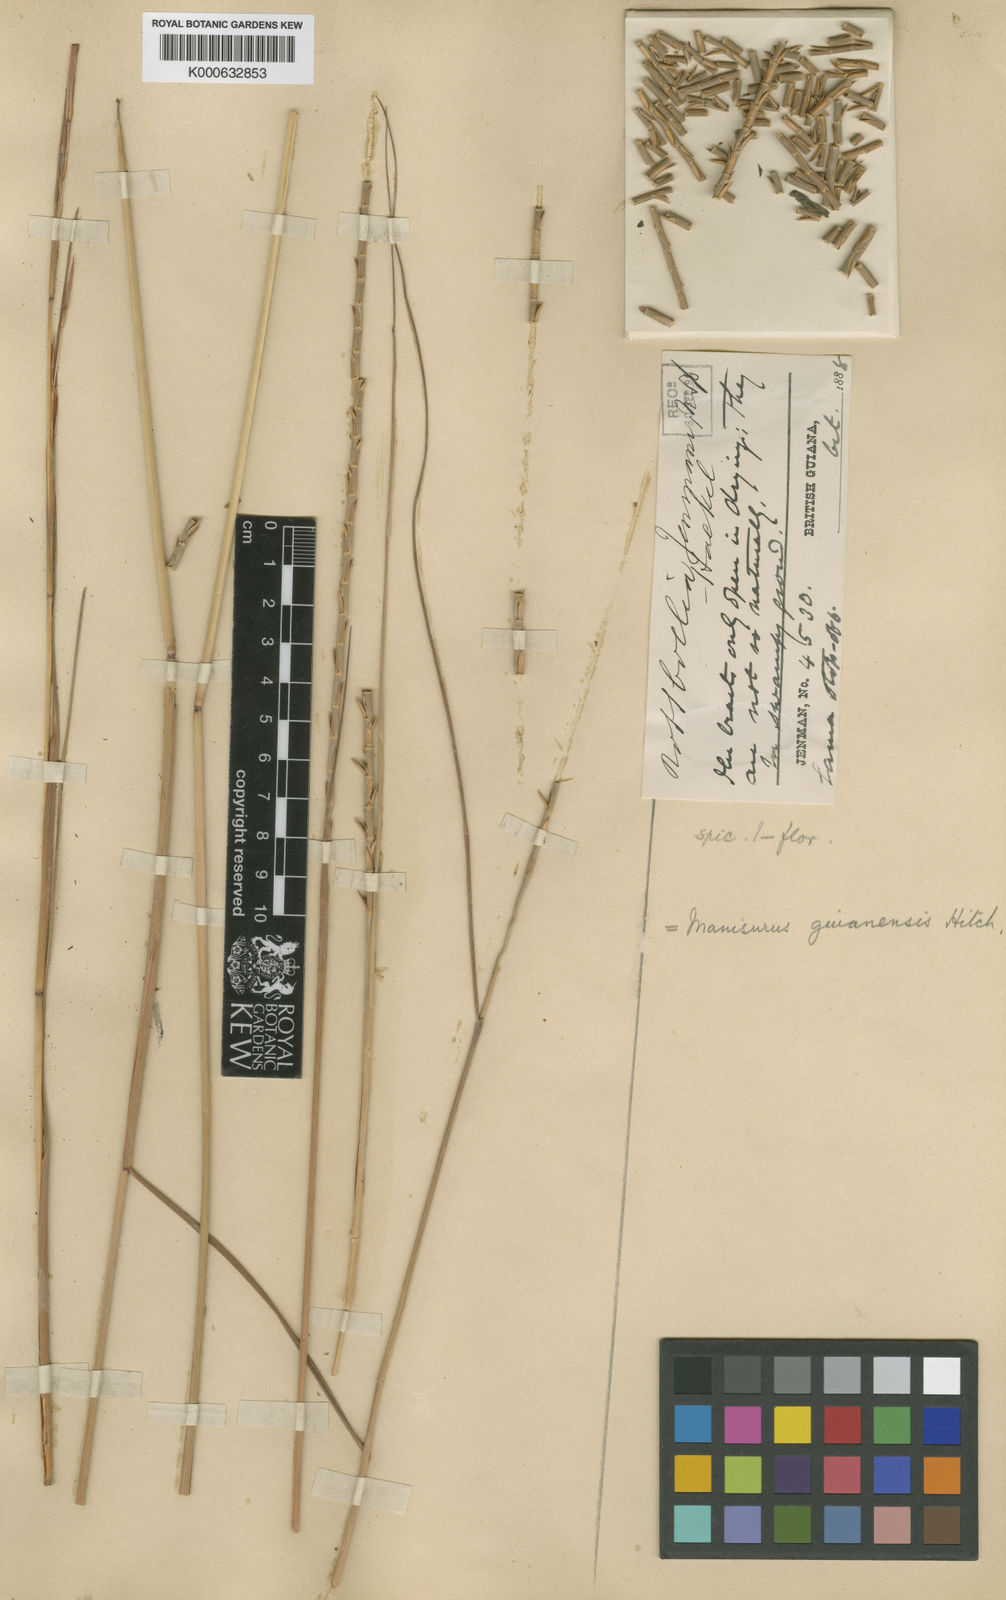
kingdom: Plantae
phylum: Tracheophyta
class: Liliopsida
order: Poales
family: Poaceae
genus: Rottboellia
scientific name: Rottboellia
